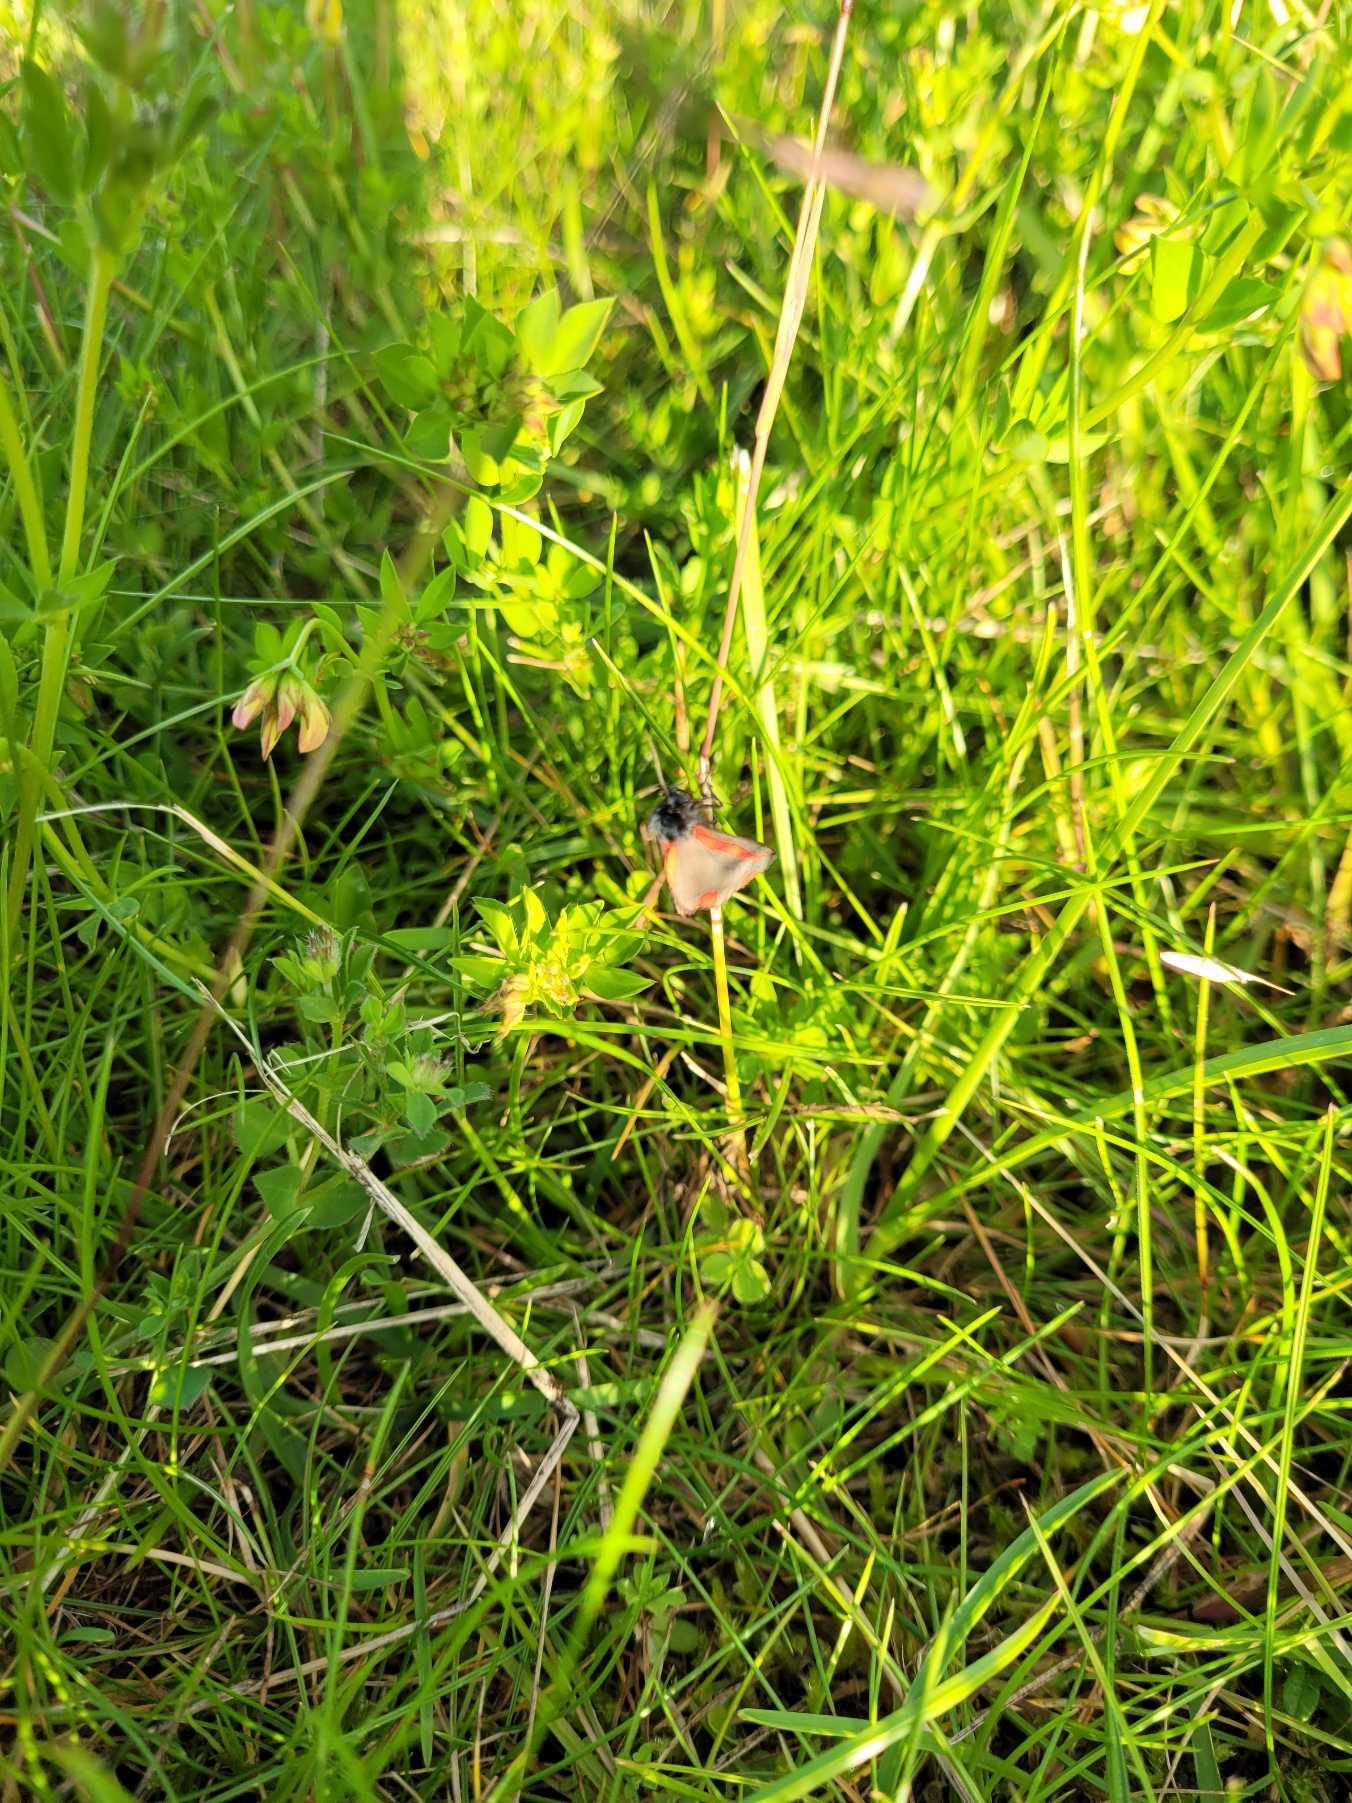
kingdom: Animalia
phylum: Arthropoda
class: Insecta
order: Lepidoptera
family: Erebidae
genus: Tyria
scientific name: Tyria jacobaeae
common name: Blodplet
